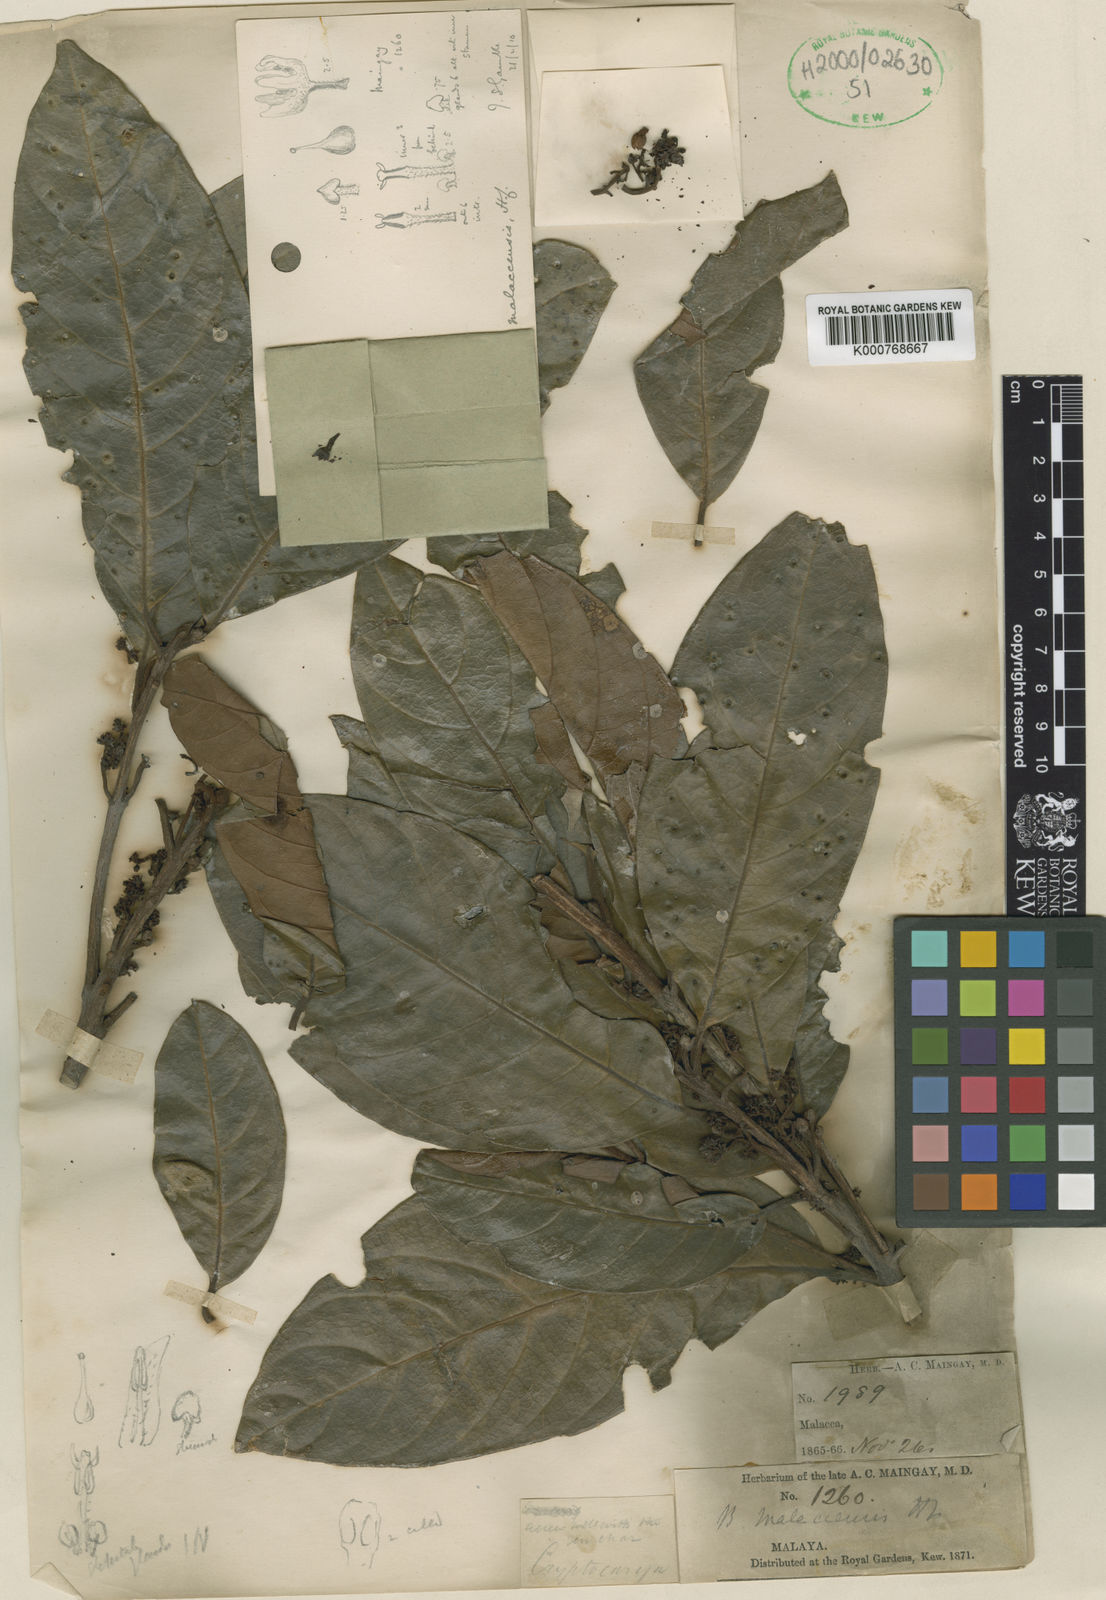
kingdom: Plantae
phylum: Tracheophyta
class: Magnoliopsida
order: Laurales
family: Lauraceae
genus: Beilschmiedia
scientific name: Beilschmiedia madang
